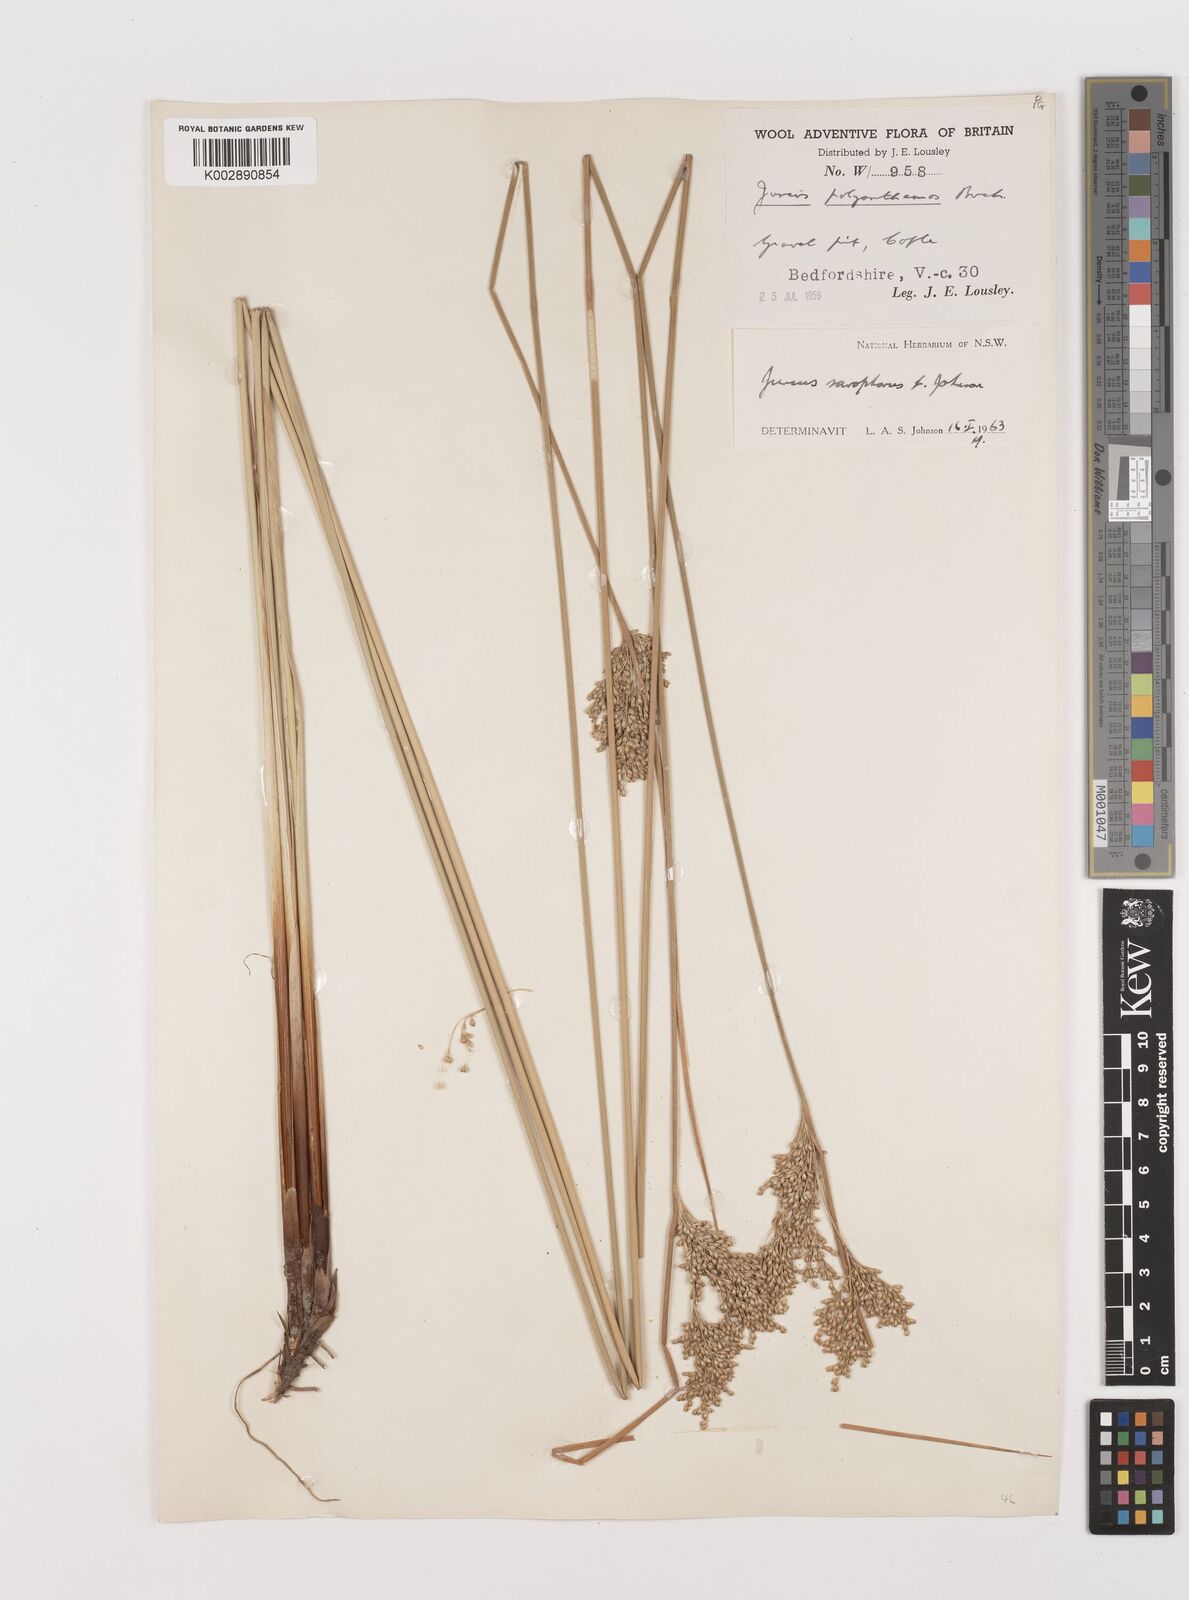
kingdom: Plantae
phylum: Tracheophyta
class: Liliopsida
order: Poales
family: Juncaceae
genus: Juncus
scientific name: Juncus sarophorus
